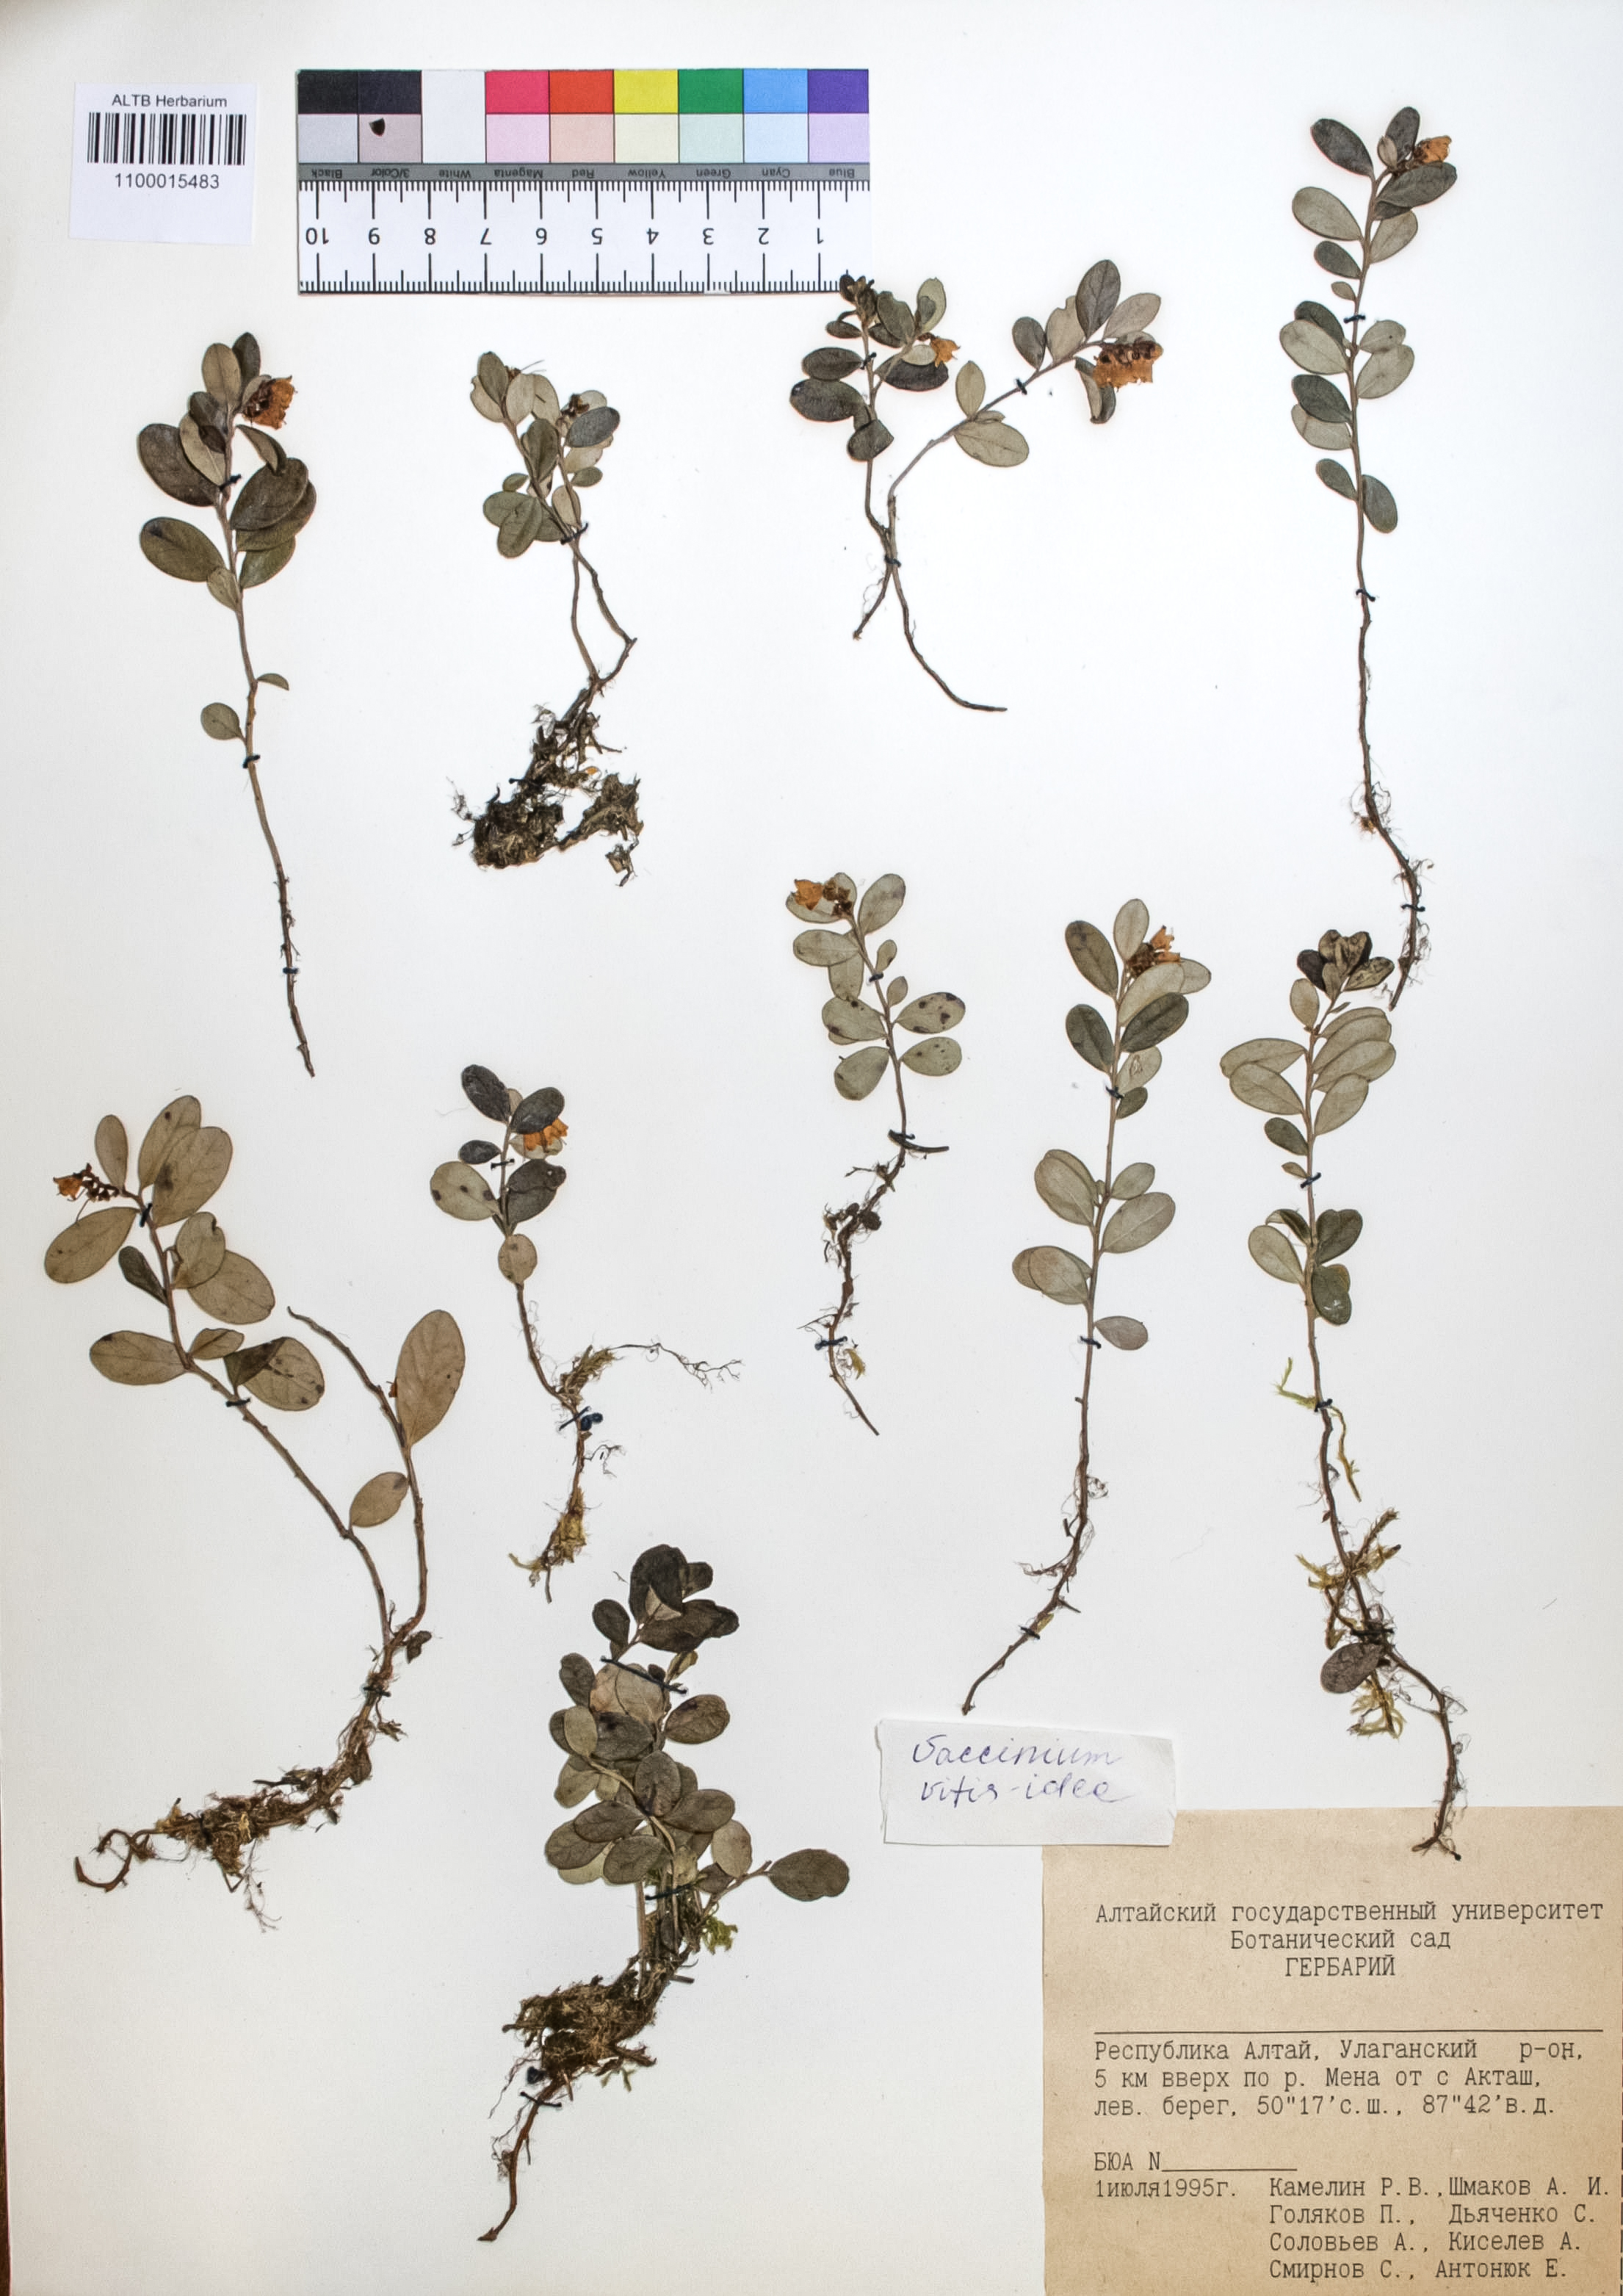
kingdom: Plantae
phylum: Tracheophyta
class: Magnoliopsida
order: Ericales
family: Ericaceae
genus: Vaccinium
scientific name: Vaccinium vitis-idaea
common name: Cowberry
